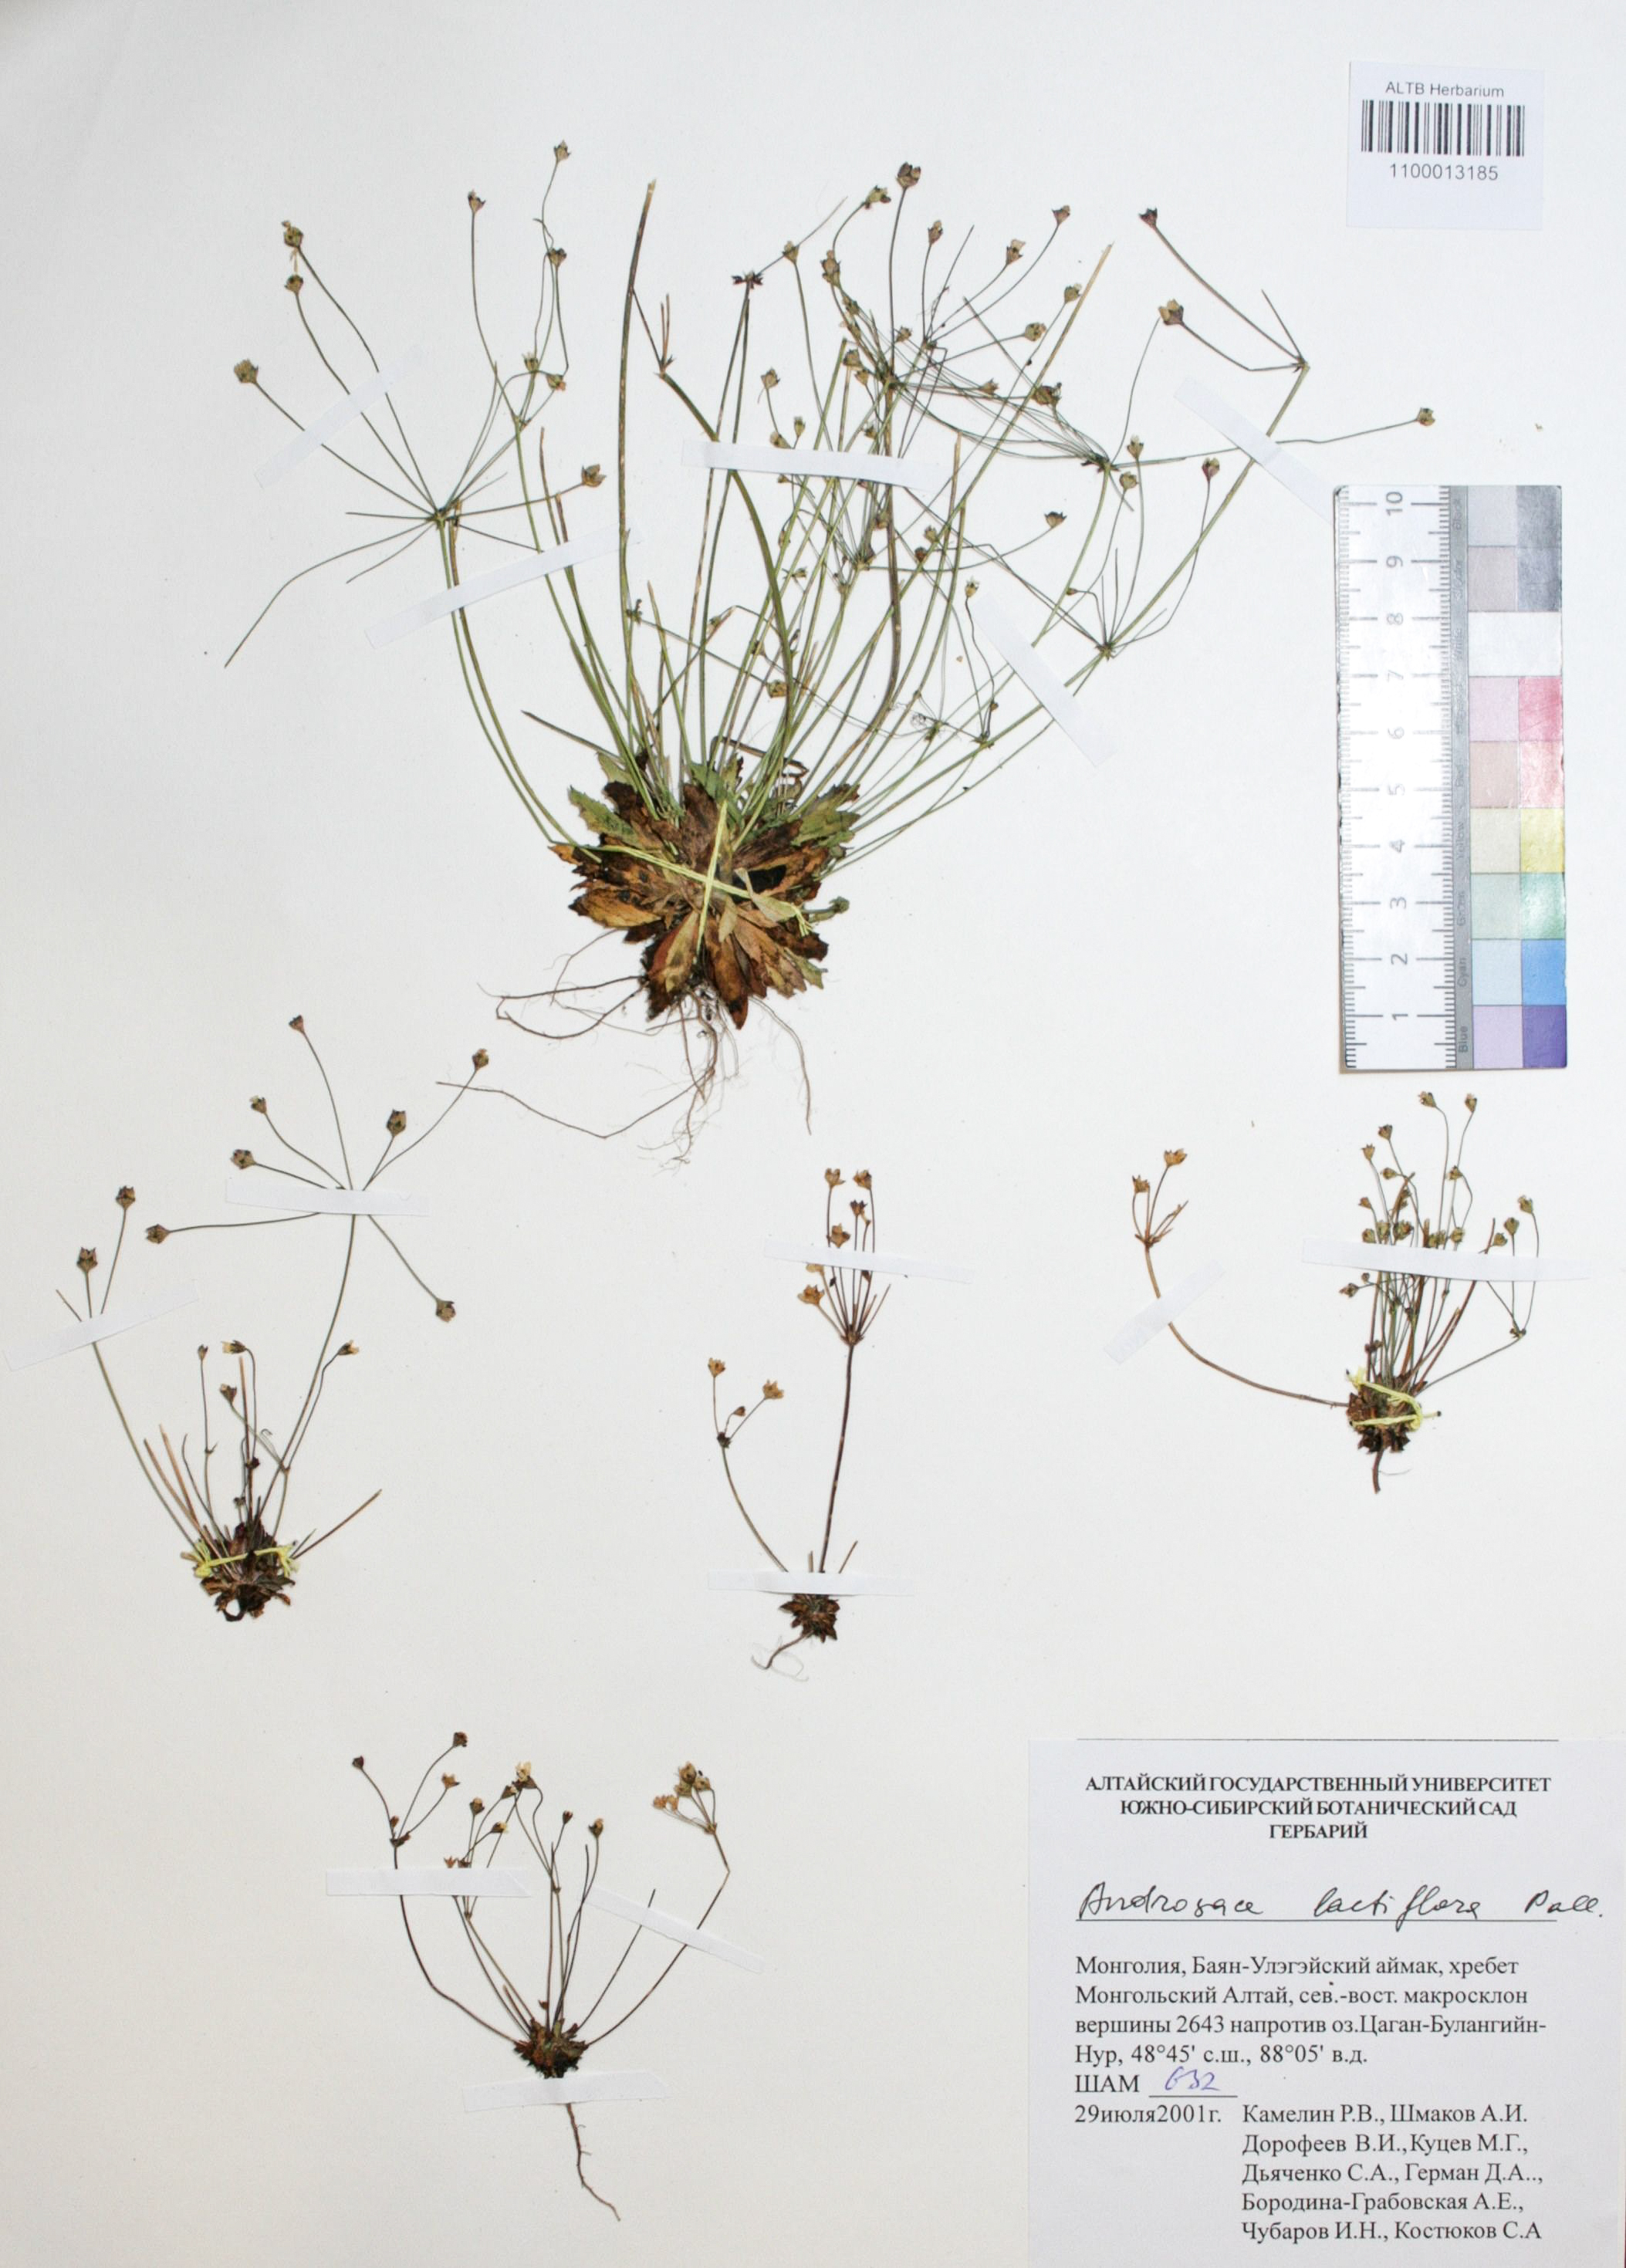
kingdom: Plantae
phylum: Tracheophyta
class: Magnoliopsida
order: Ericales
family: Primulaceae
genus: Androsace
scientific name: Androsace lactiflora
